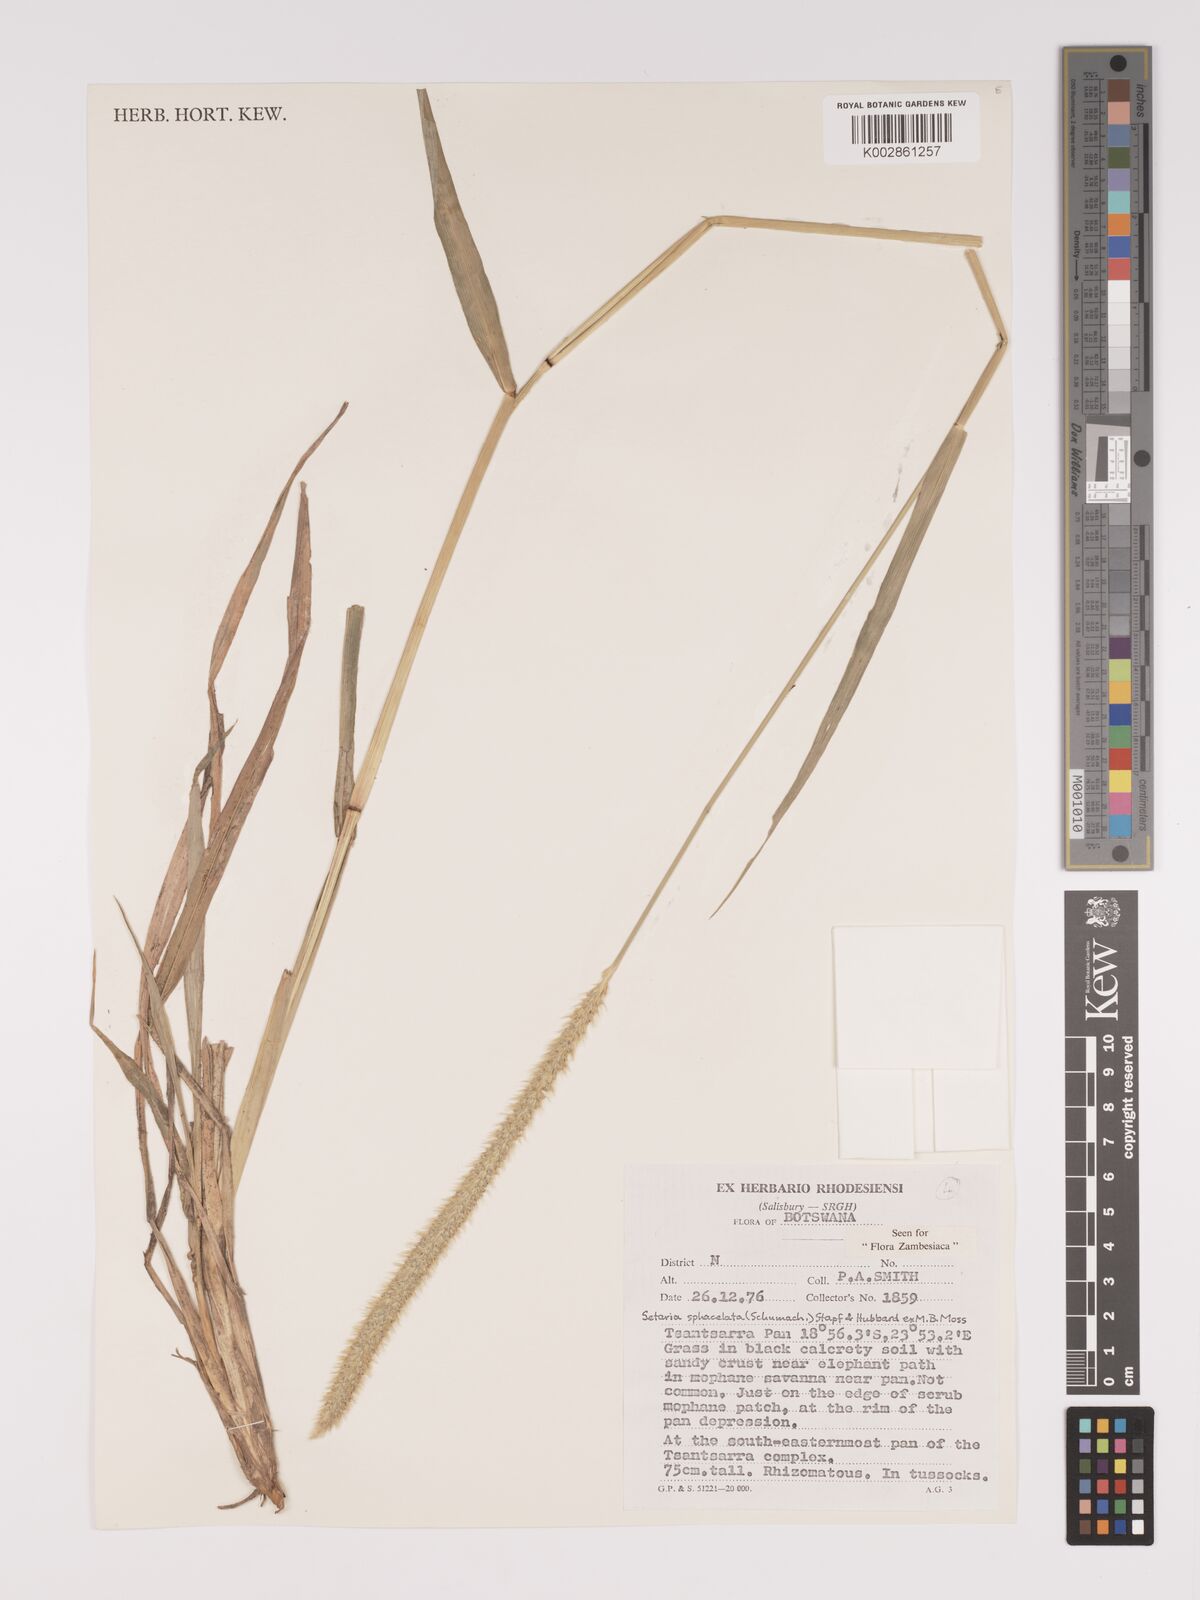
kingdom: Plantae
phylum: Tracheophyta
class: Liliopsida
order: Poales
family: Poaceae
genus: Setaria
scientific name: Setaria sphacelata
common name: African bristlegrass
